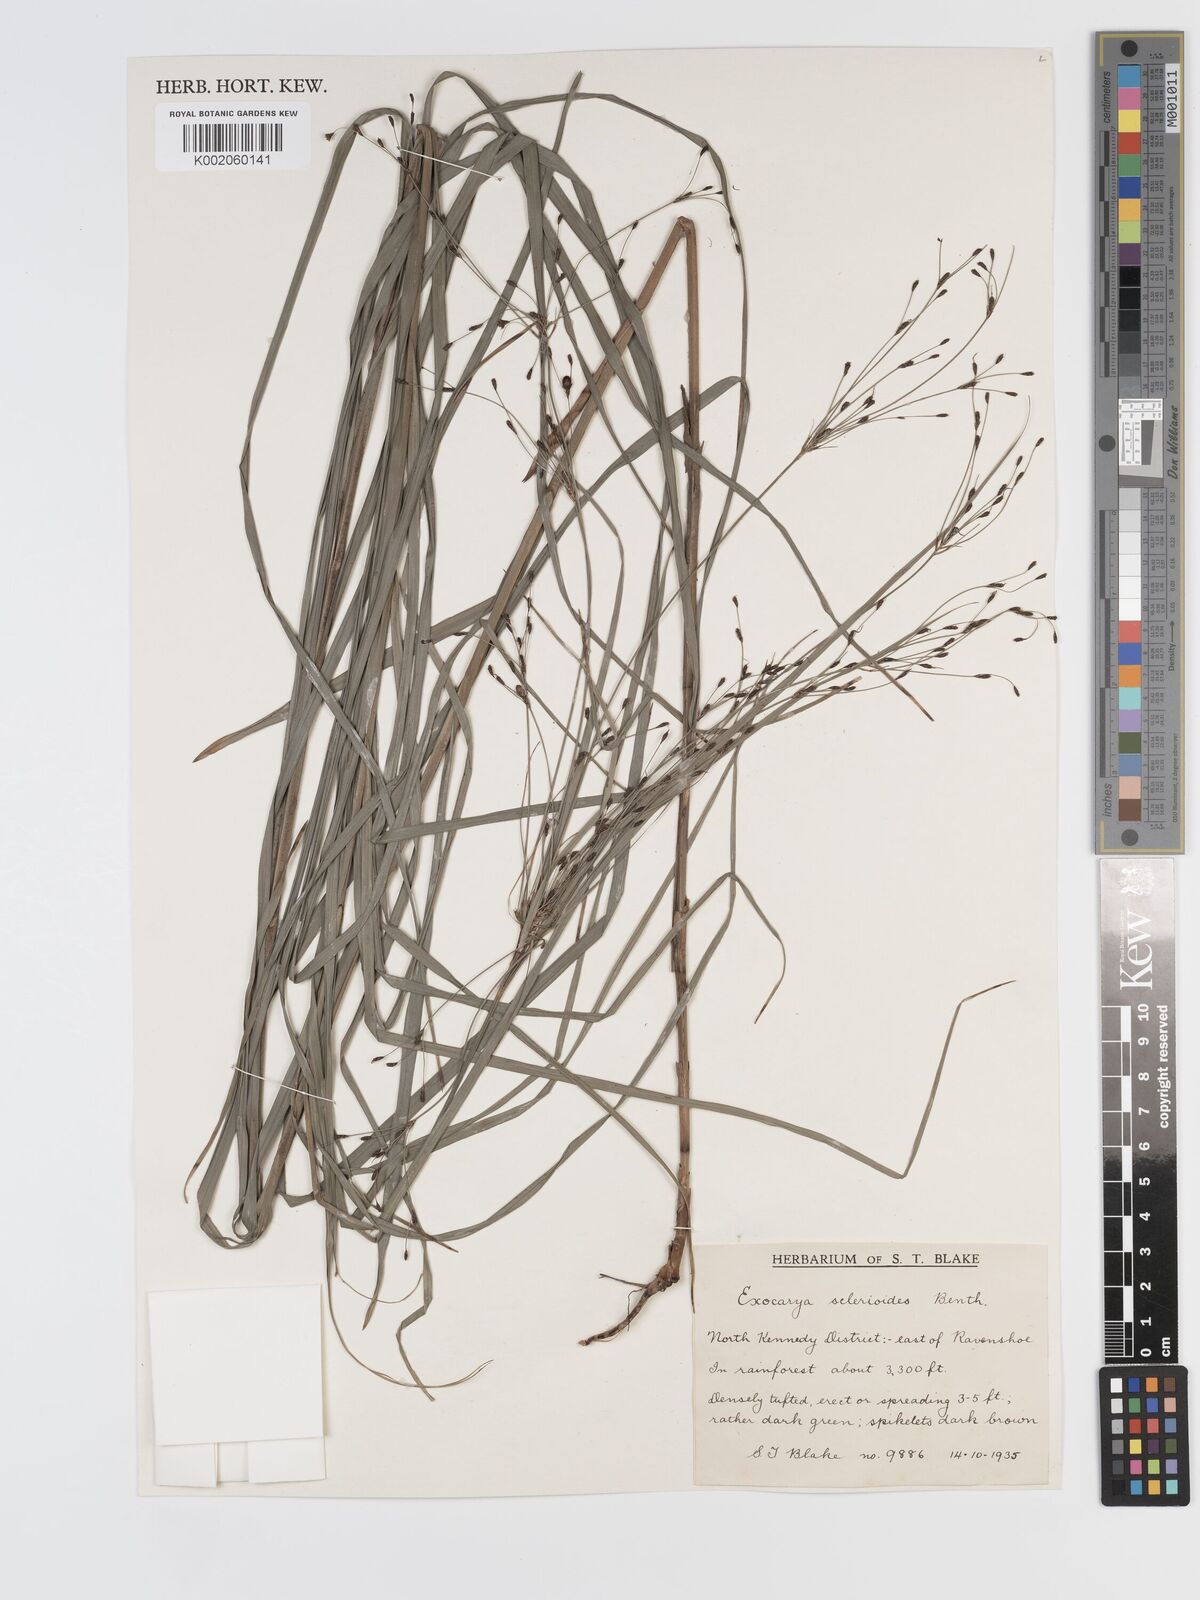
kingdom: Plantae
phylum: Tracheophyta
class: Liliopsida
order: Poales
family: Cyperaceae
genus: Exocarya
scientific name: Exocarya sclerioides
